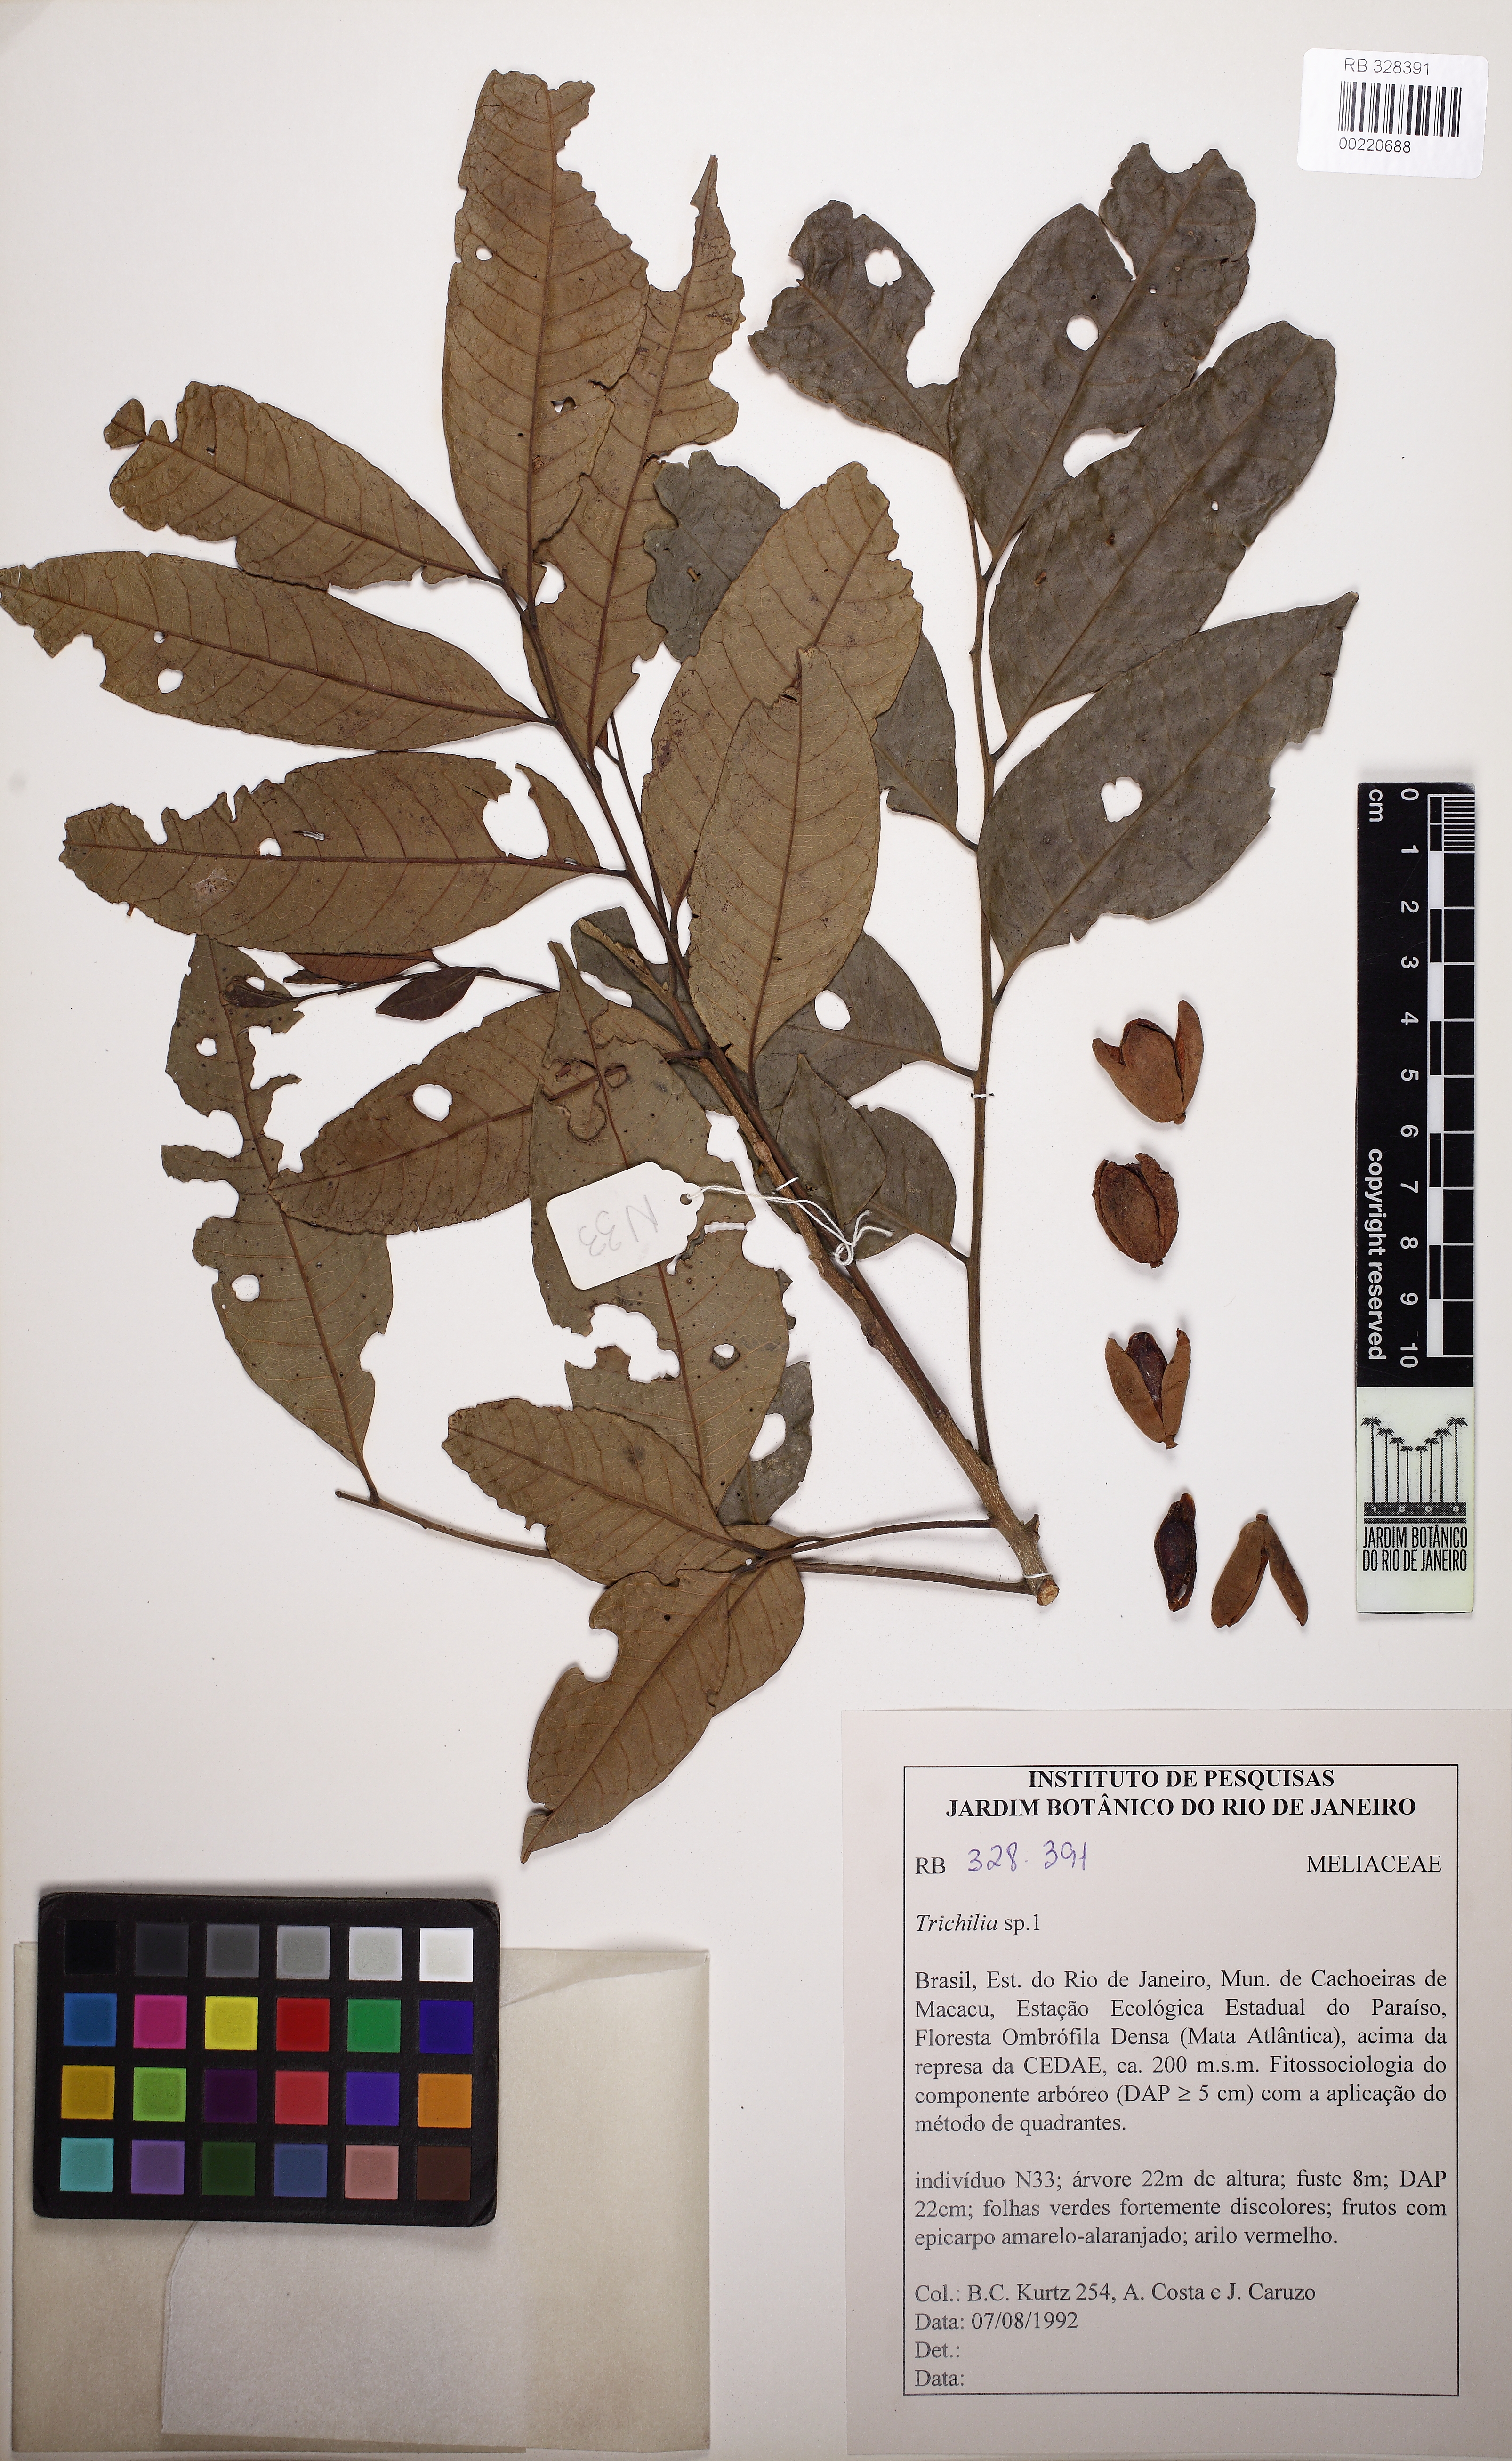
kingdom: Plantae
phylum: Tracheophyta
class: Magnoliopsida
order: Sapindales
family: Meliaceae
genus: Trichilia
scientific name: Trichilia
